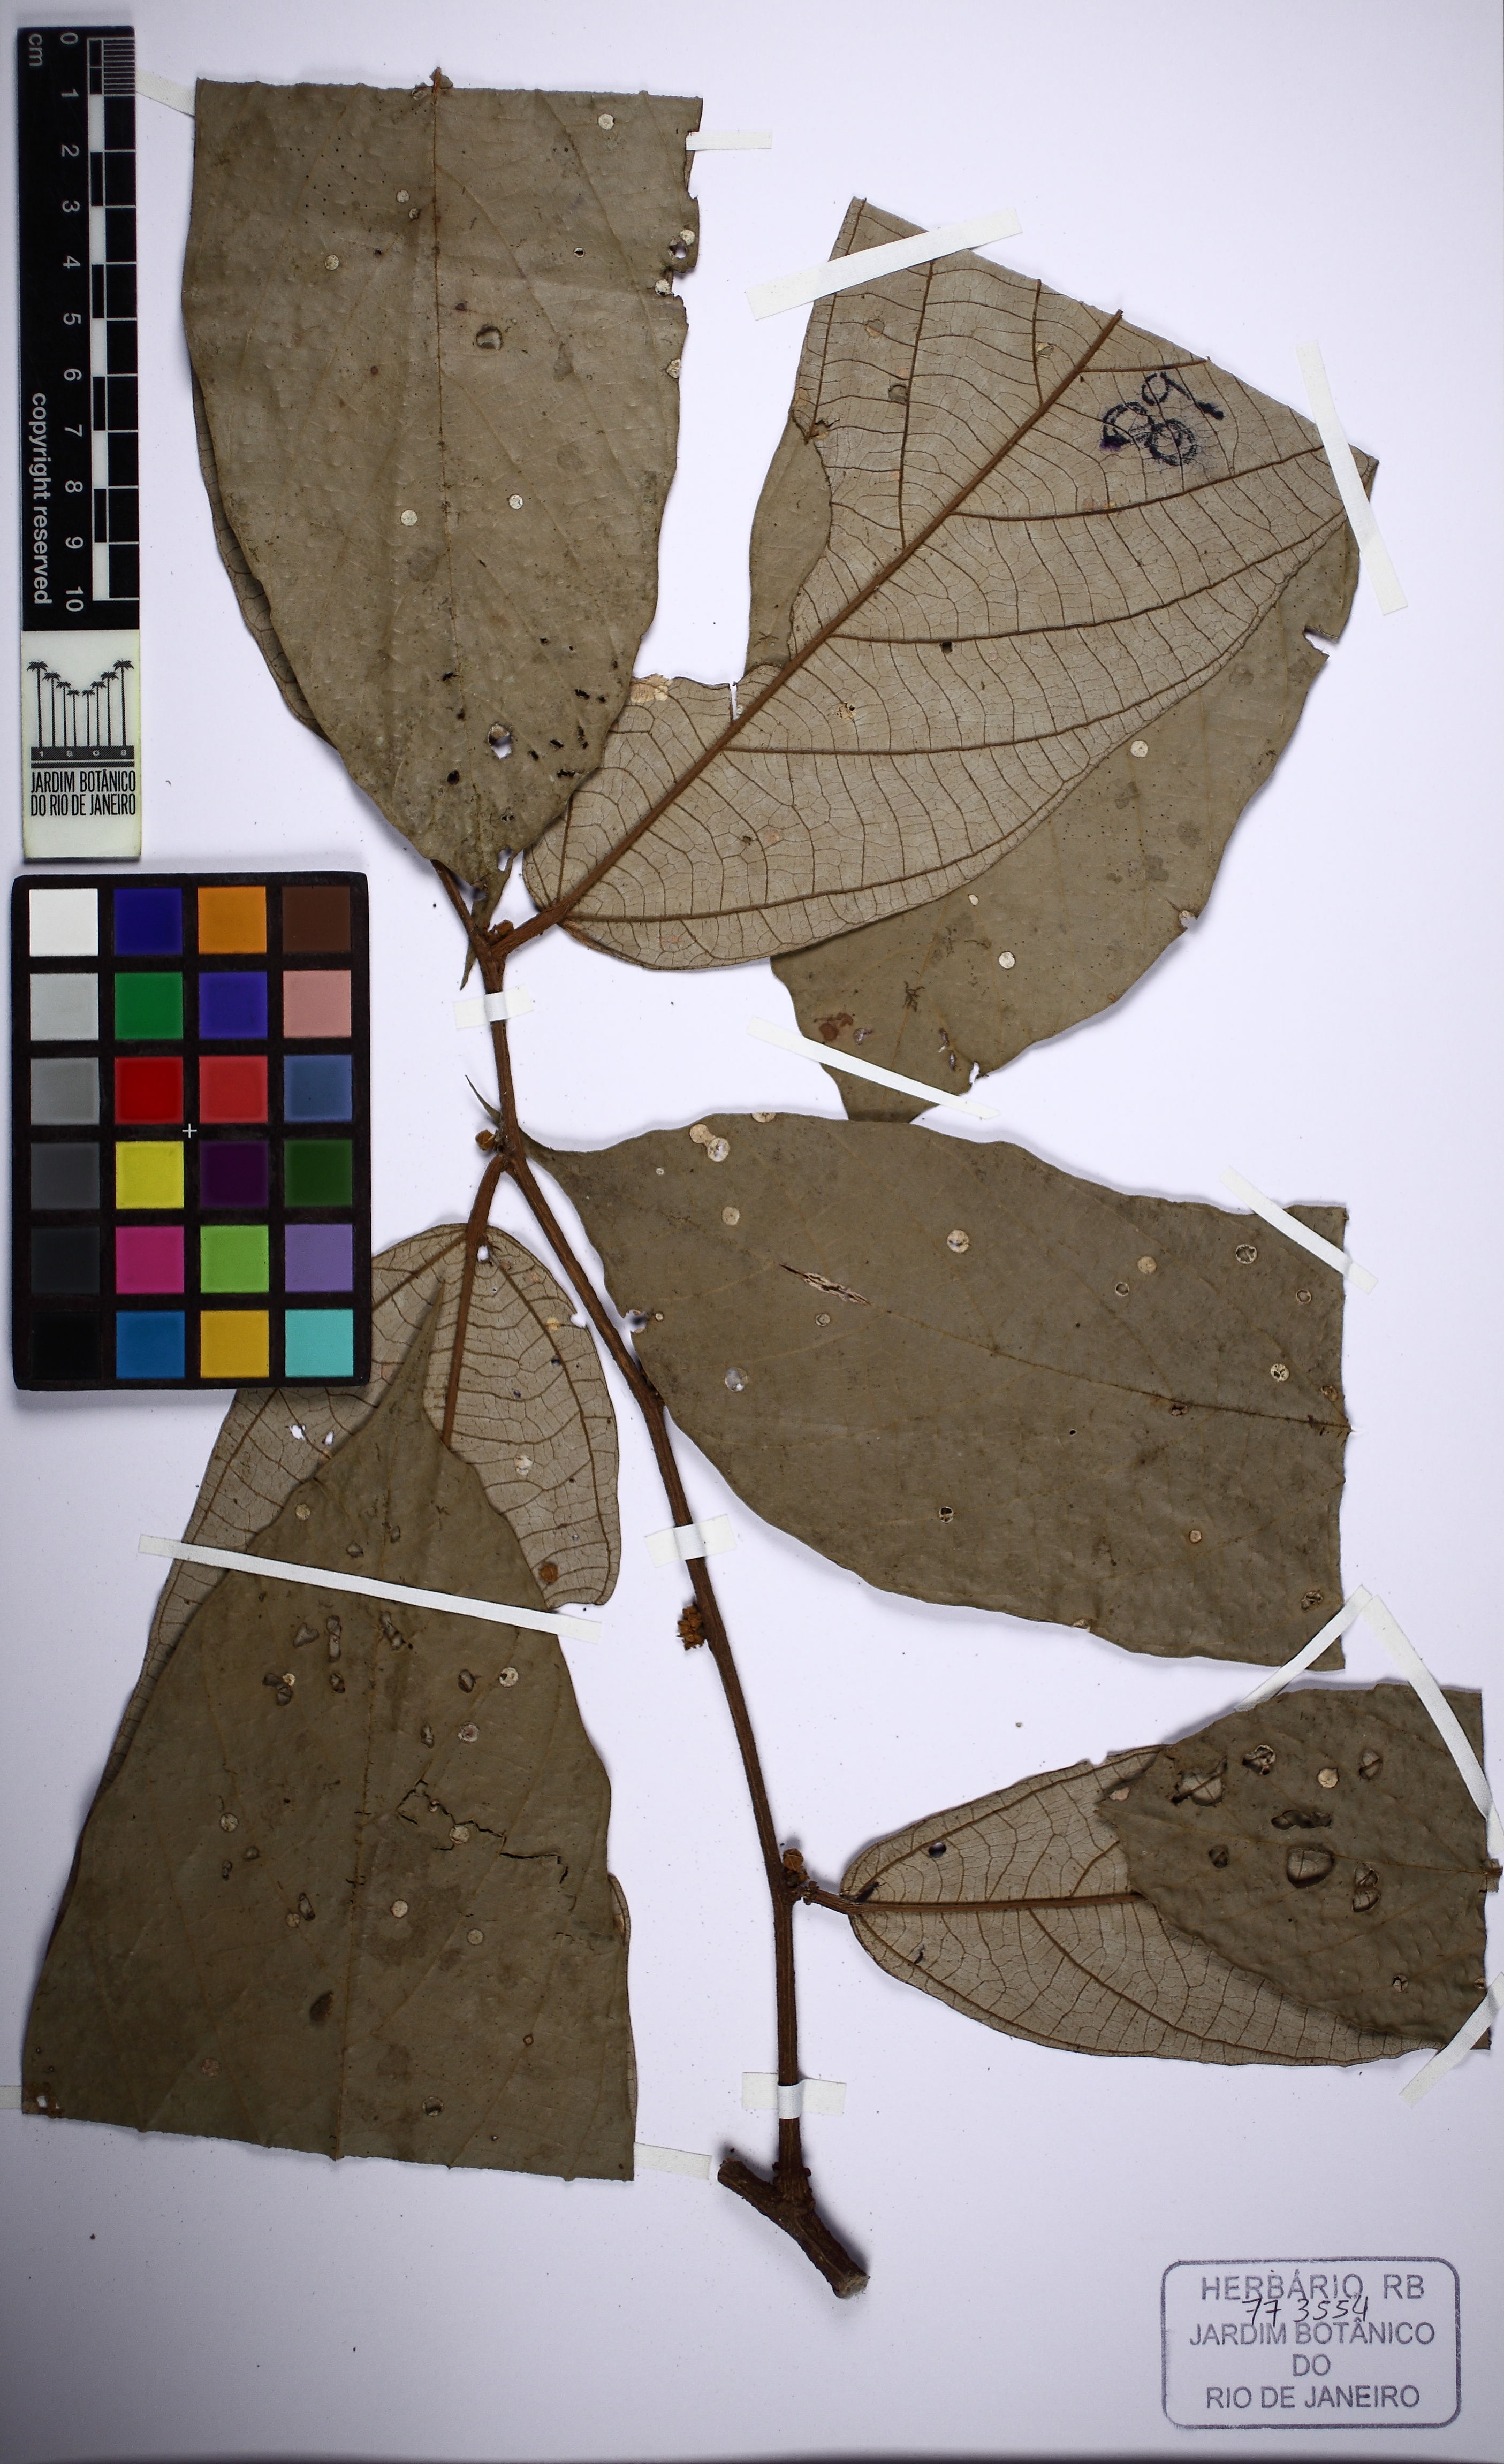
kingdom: Plantae
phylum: Tracheophyta
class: Magnoliopsida
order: Malvales
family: Malvaceae
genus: Theobroma
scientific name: Theobroma subincanum
